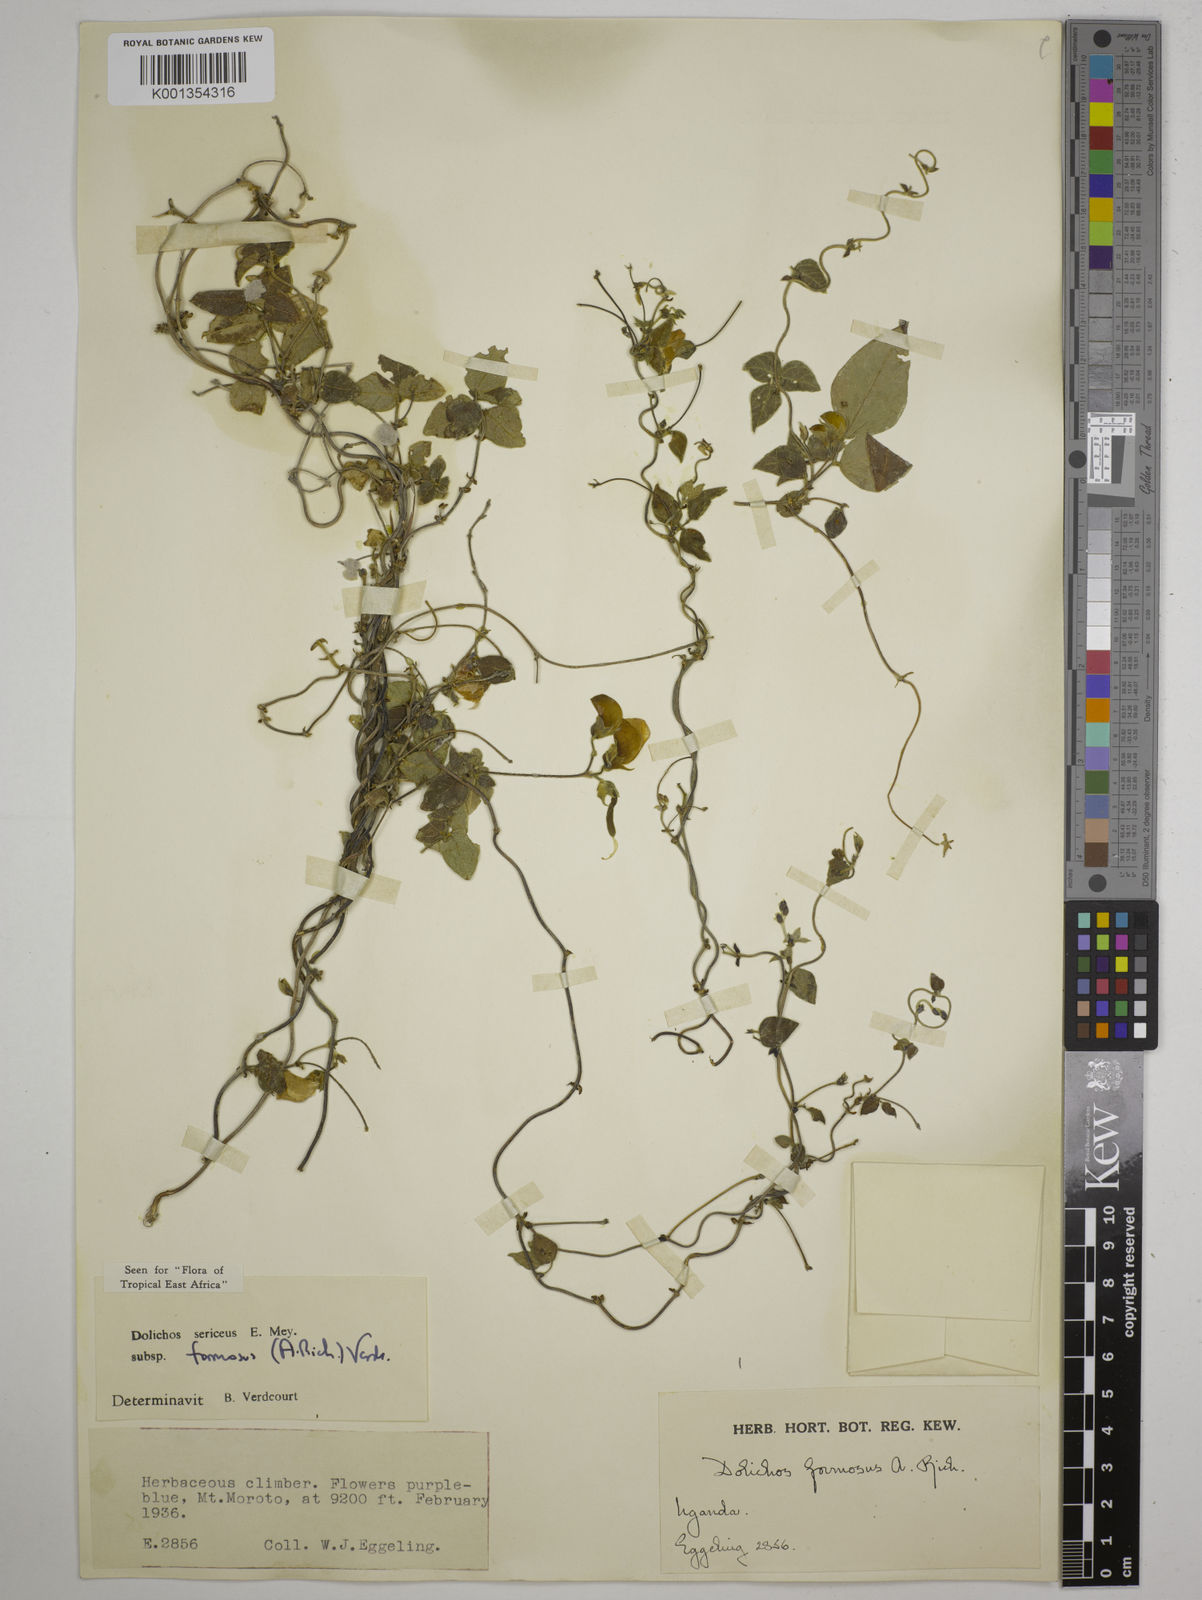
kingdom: Plantae
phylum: Tracheophyta
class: Magnoliopsida
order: Fabales
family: Fabaceae
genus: Dolichos
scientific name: Dolichos
